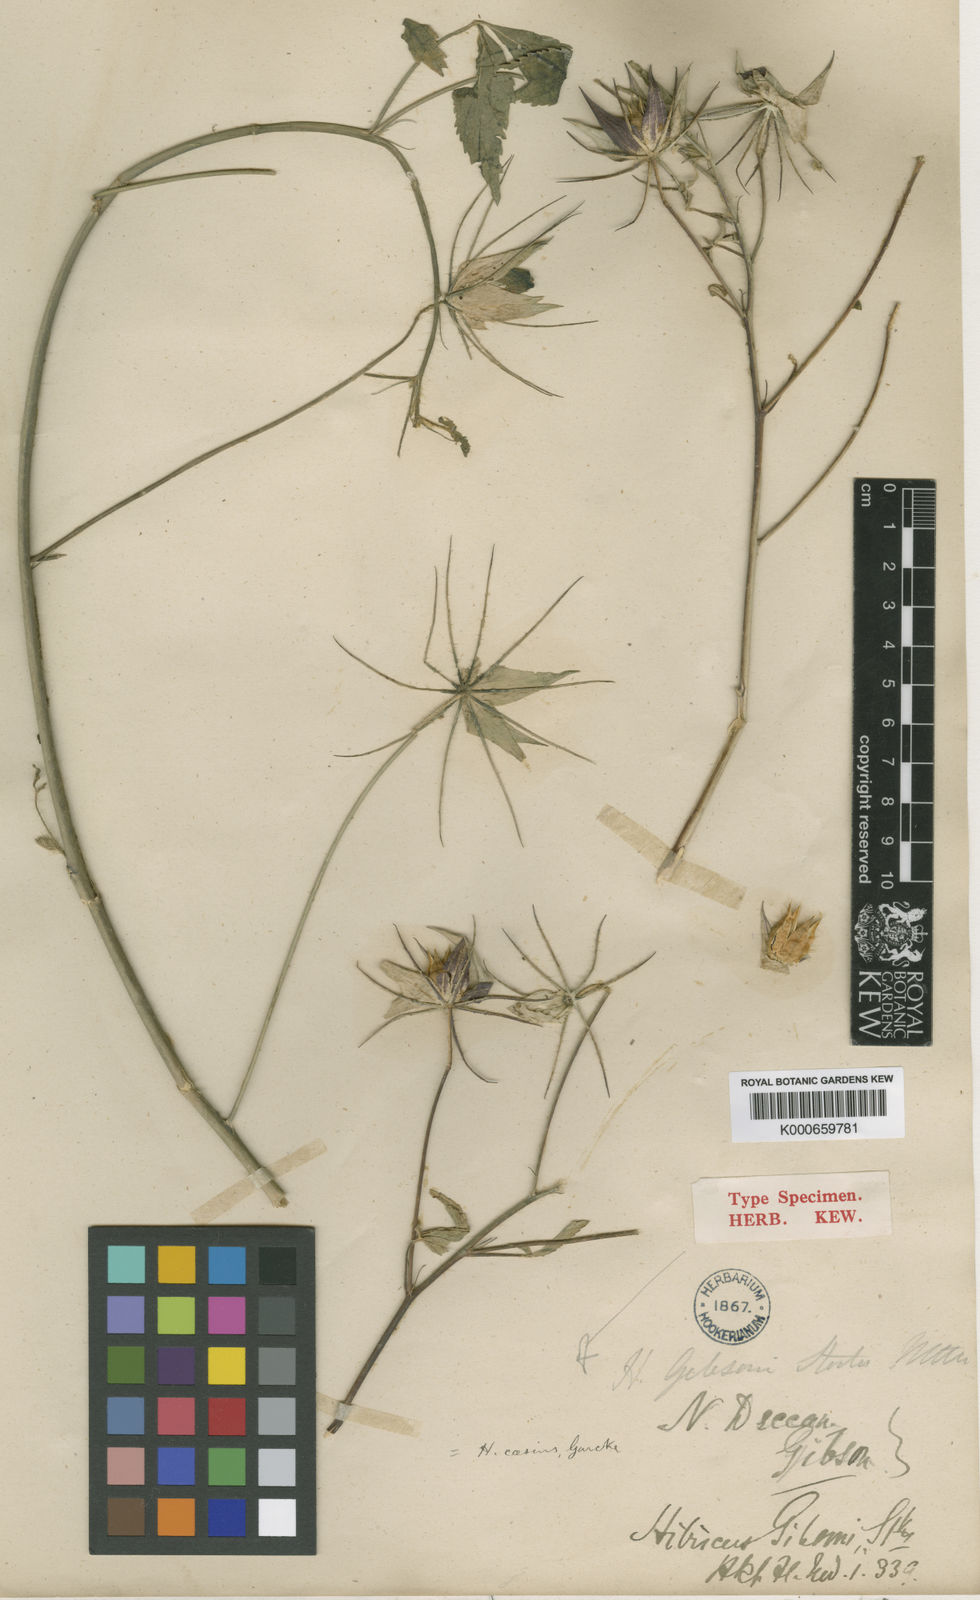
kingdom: Plantae
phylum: Tracheophyta
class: Magnoliopsida
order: Malvales
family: Malvaceae
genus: Hibiscus
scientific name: Hibiscus caesius
